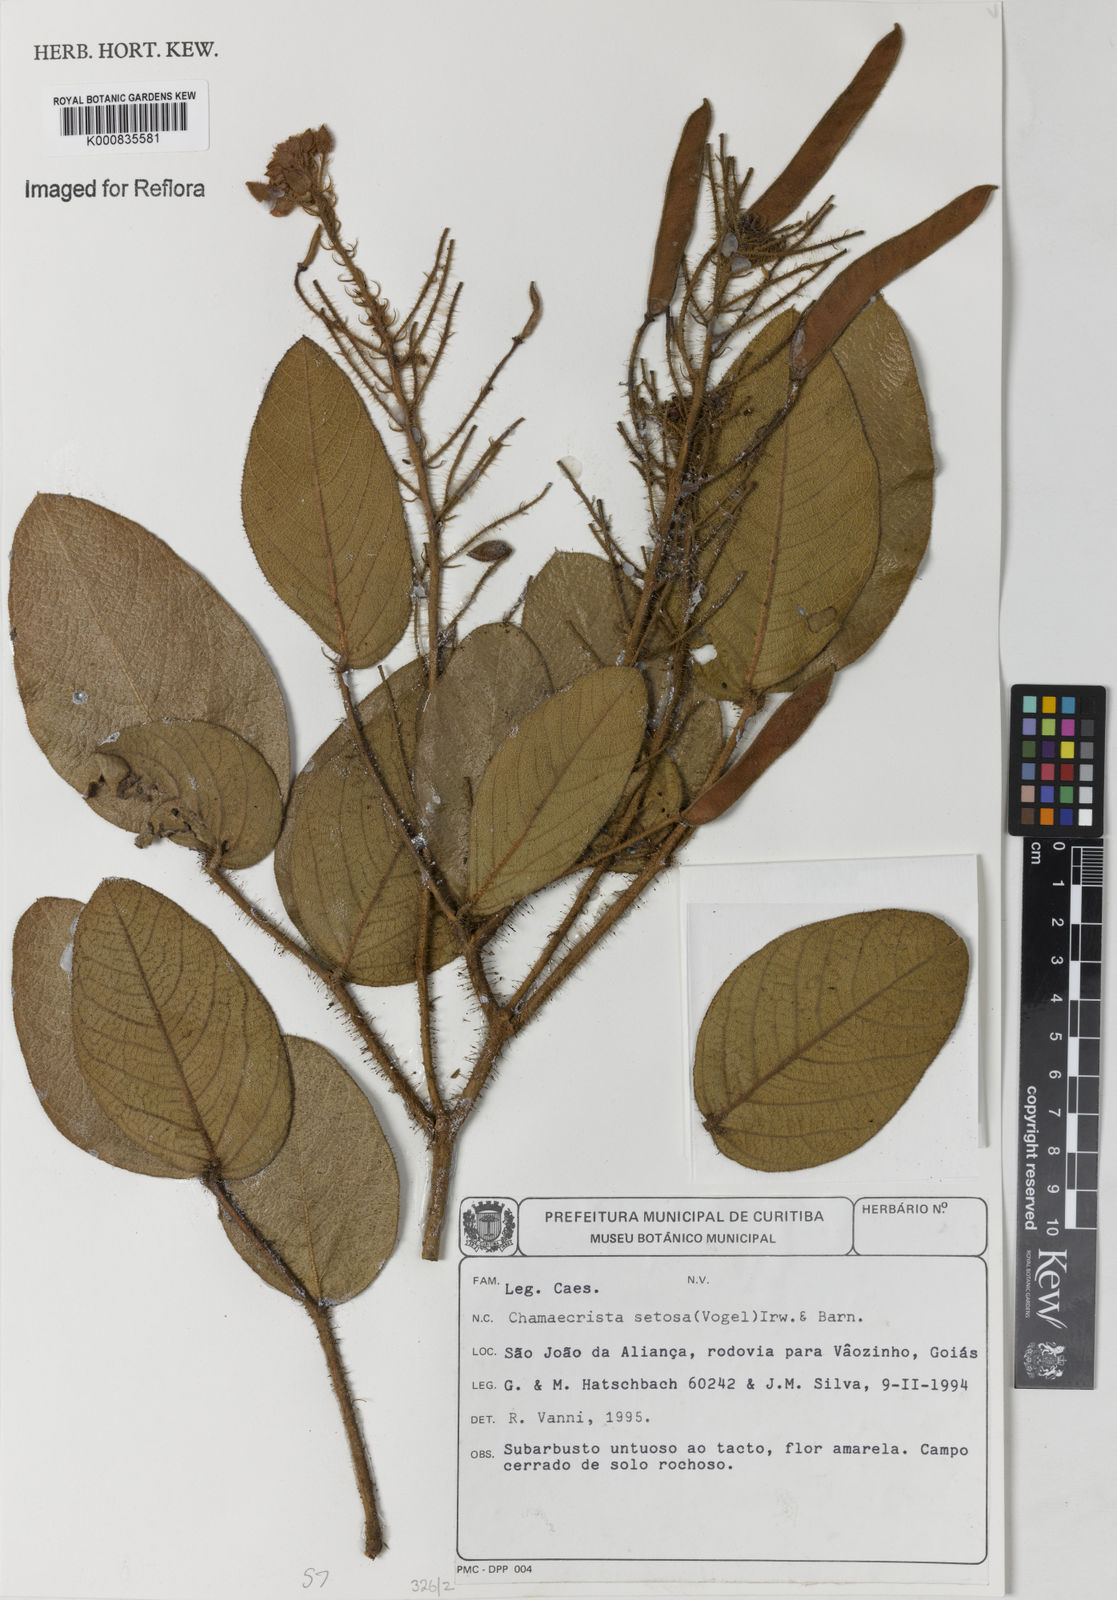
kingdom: Plantae
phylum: Tracheophyta
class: Magnoliopsida
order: Fabales
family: Fabaceae
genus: Chamaecrista
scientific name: Chamaecrista setosa
